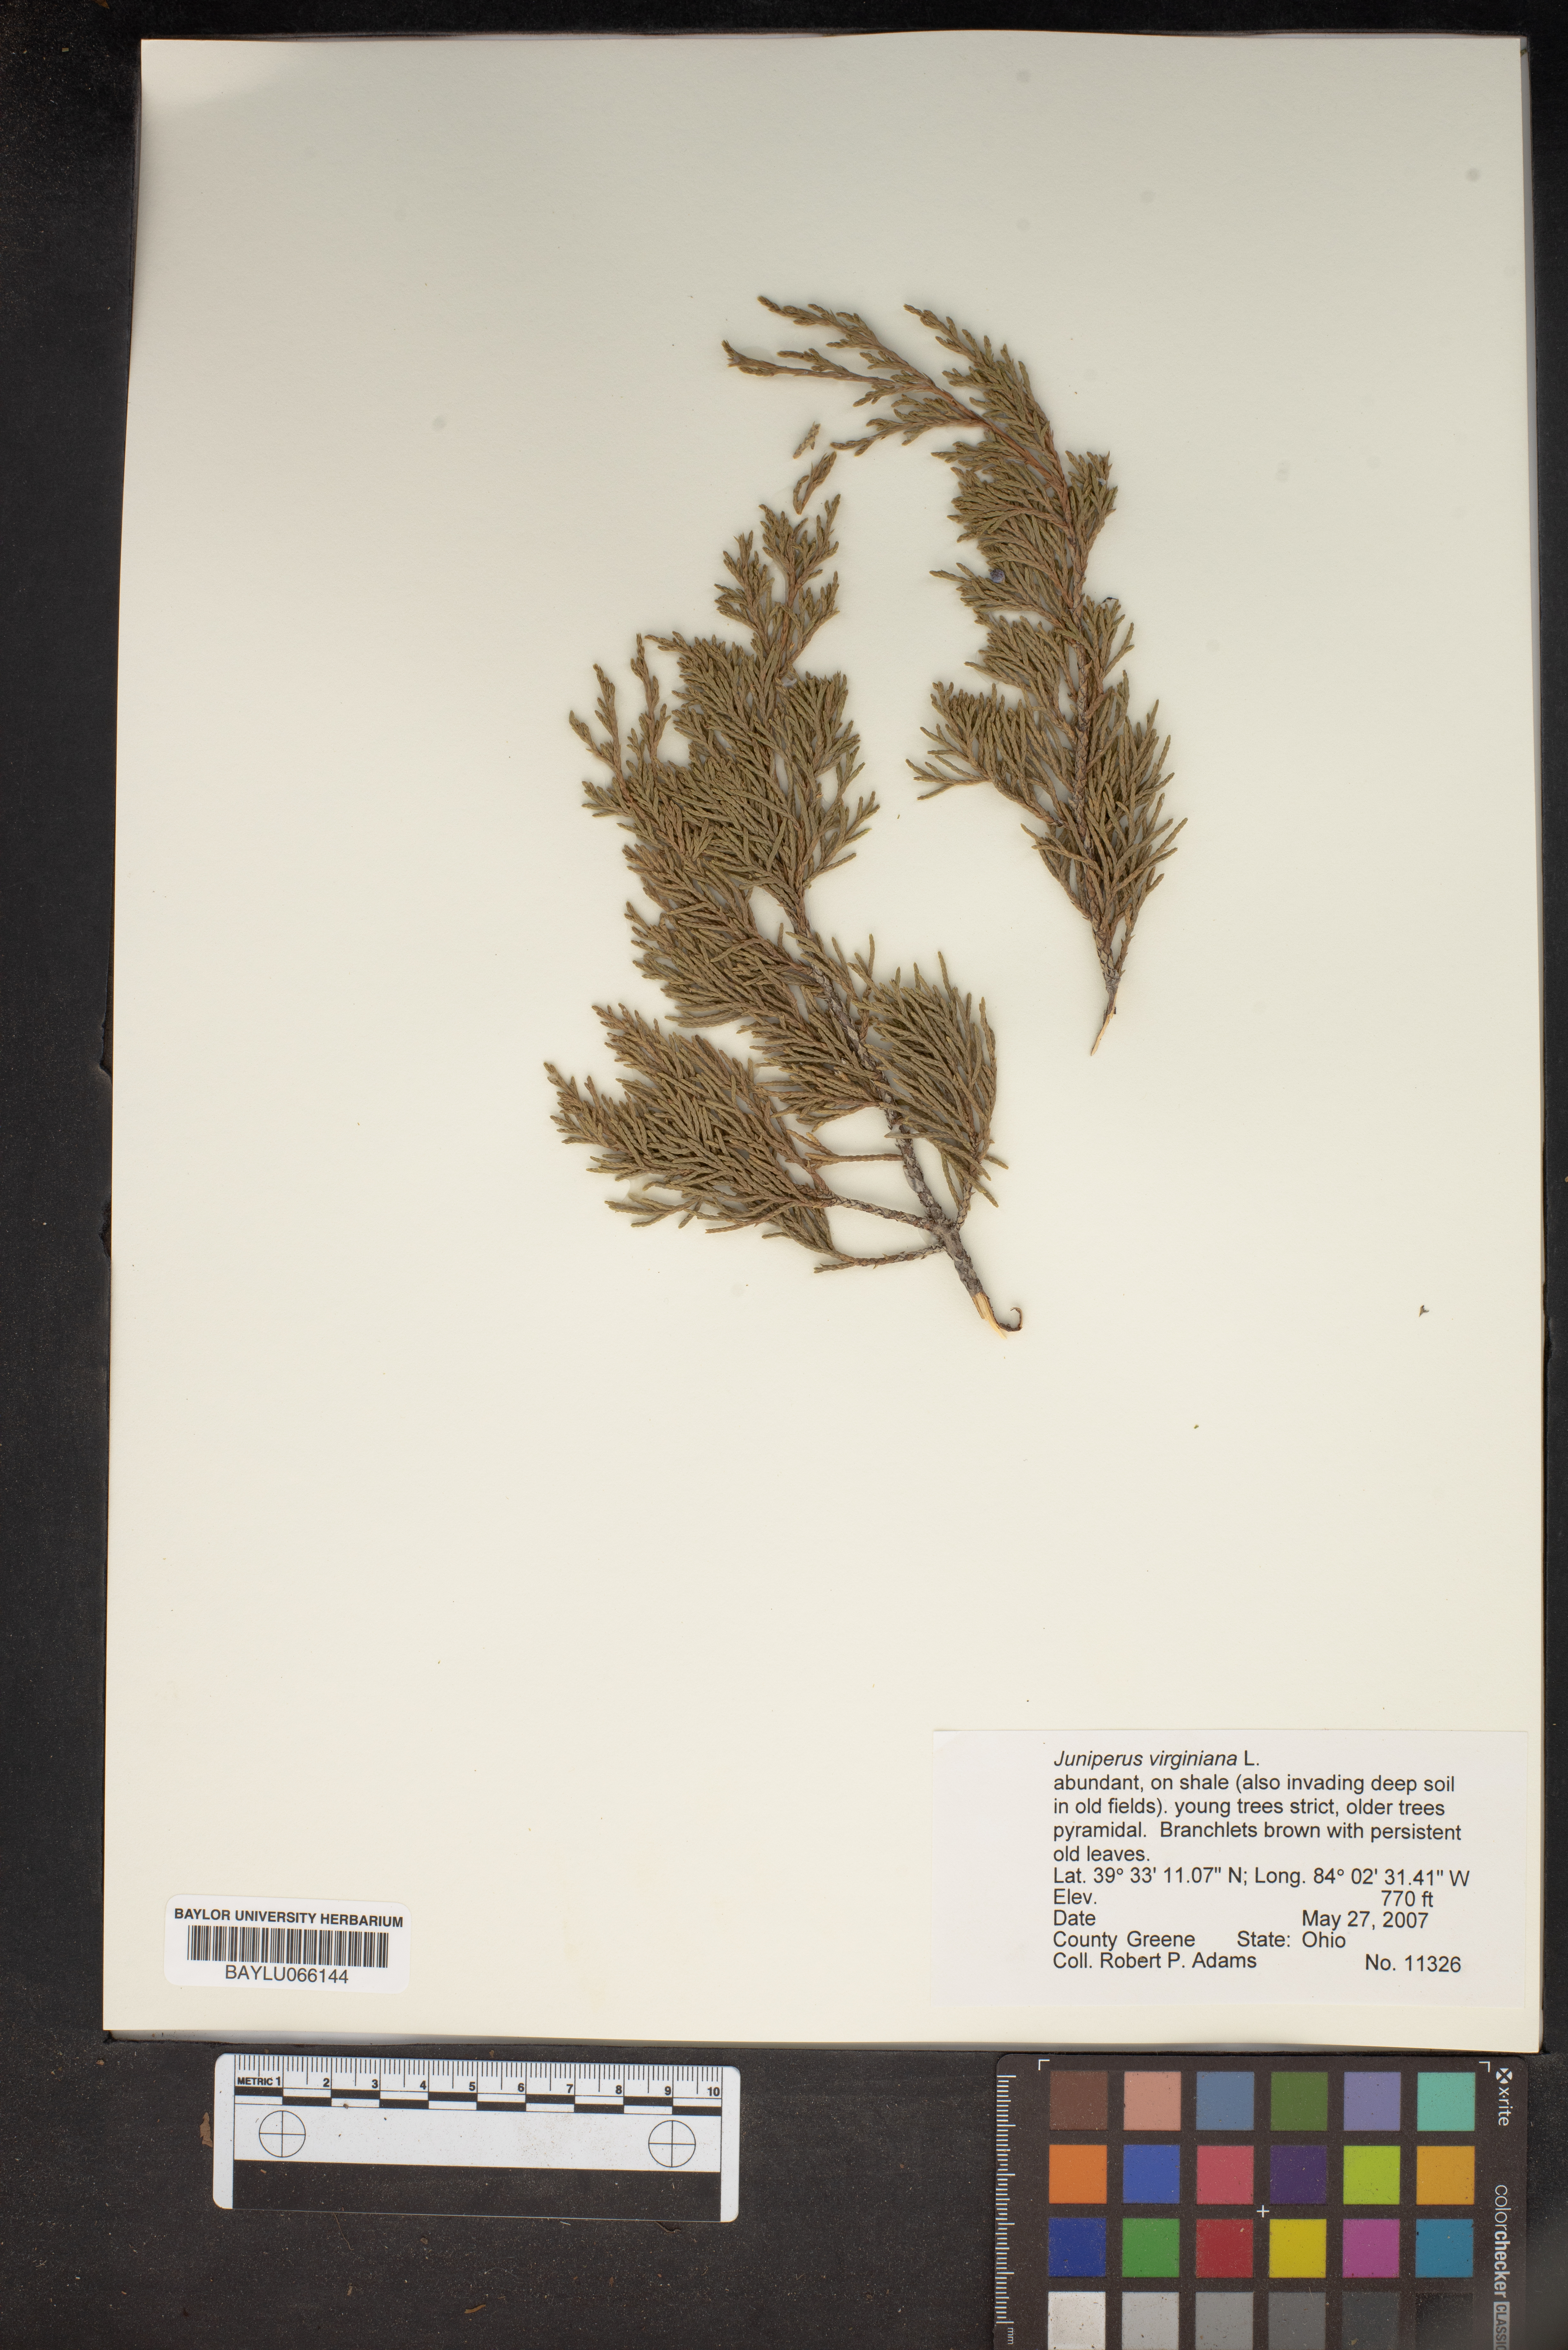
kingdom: Plantae
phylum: Tracheophyta
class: Pinopsida
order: Pinales
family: Cupressaceae
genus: Juniperus
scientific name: Juniperus virginiana
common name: Red juniper
